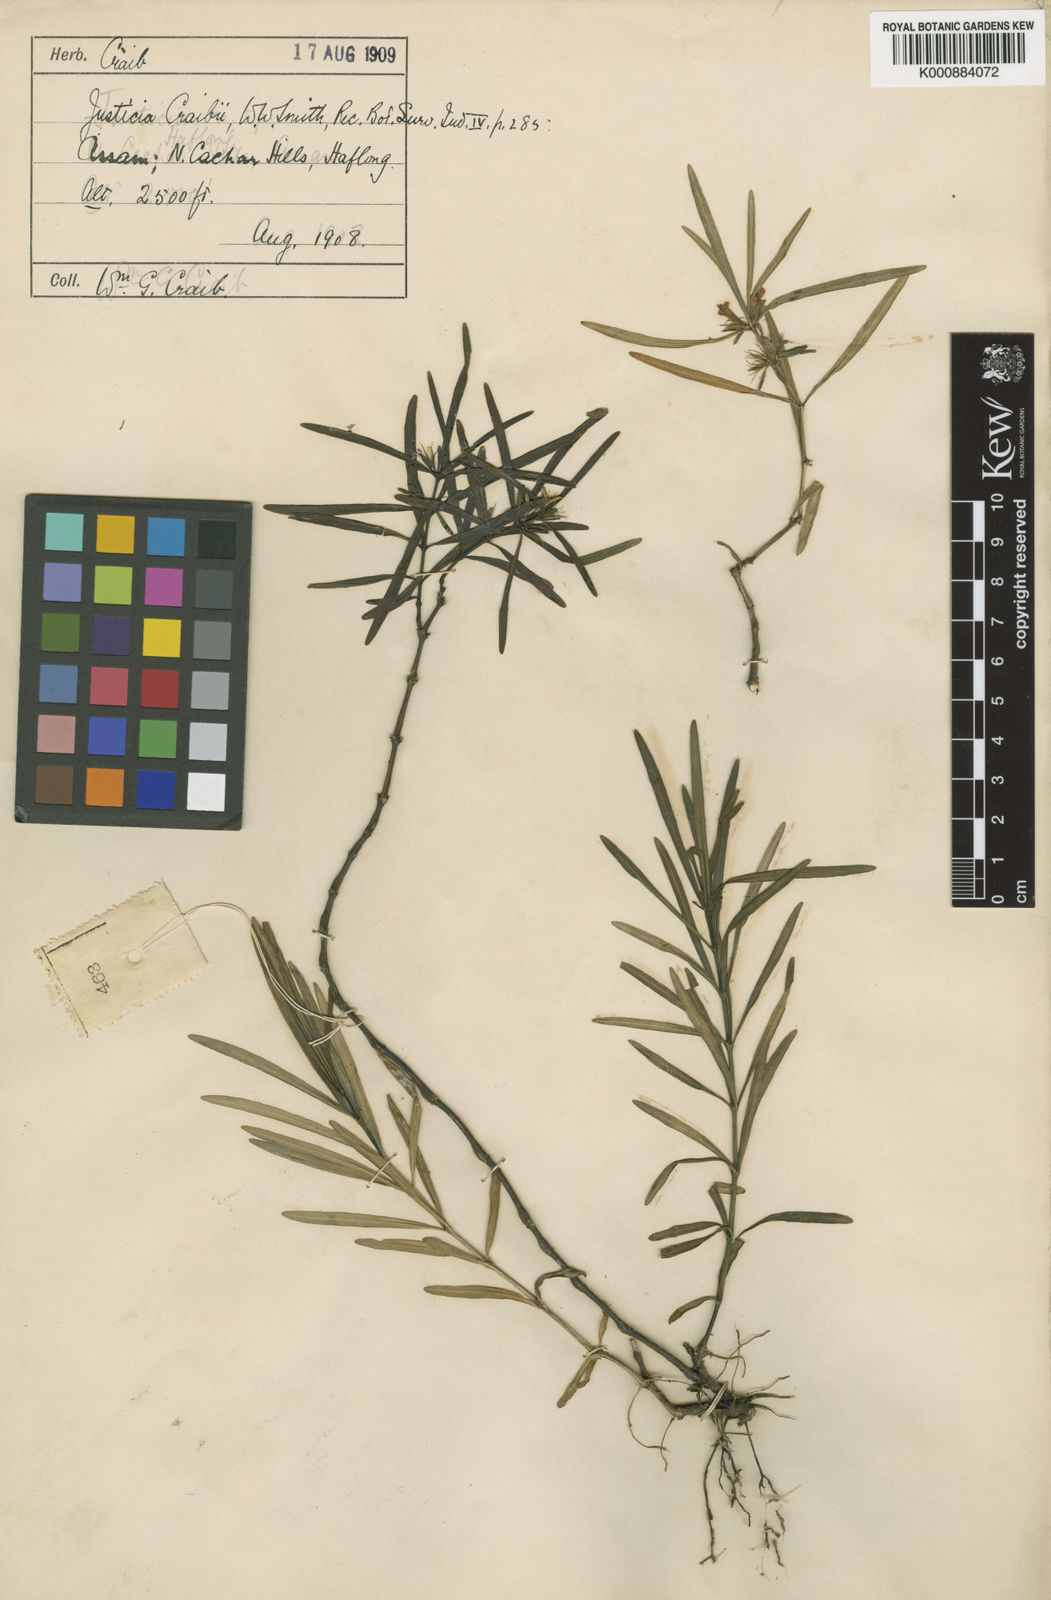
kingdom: Plantae
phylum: Tracheophyta
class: Magnoliopsida
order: Lamiales
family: Acanthaceae
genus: Justicia
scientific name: Justicia craibii
